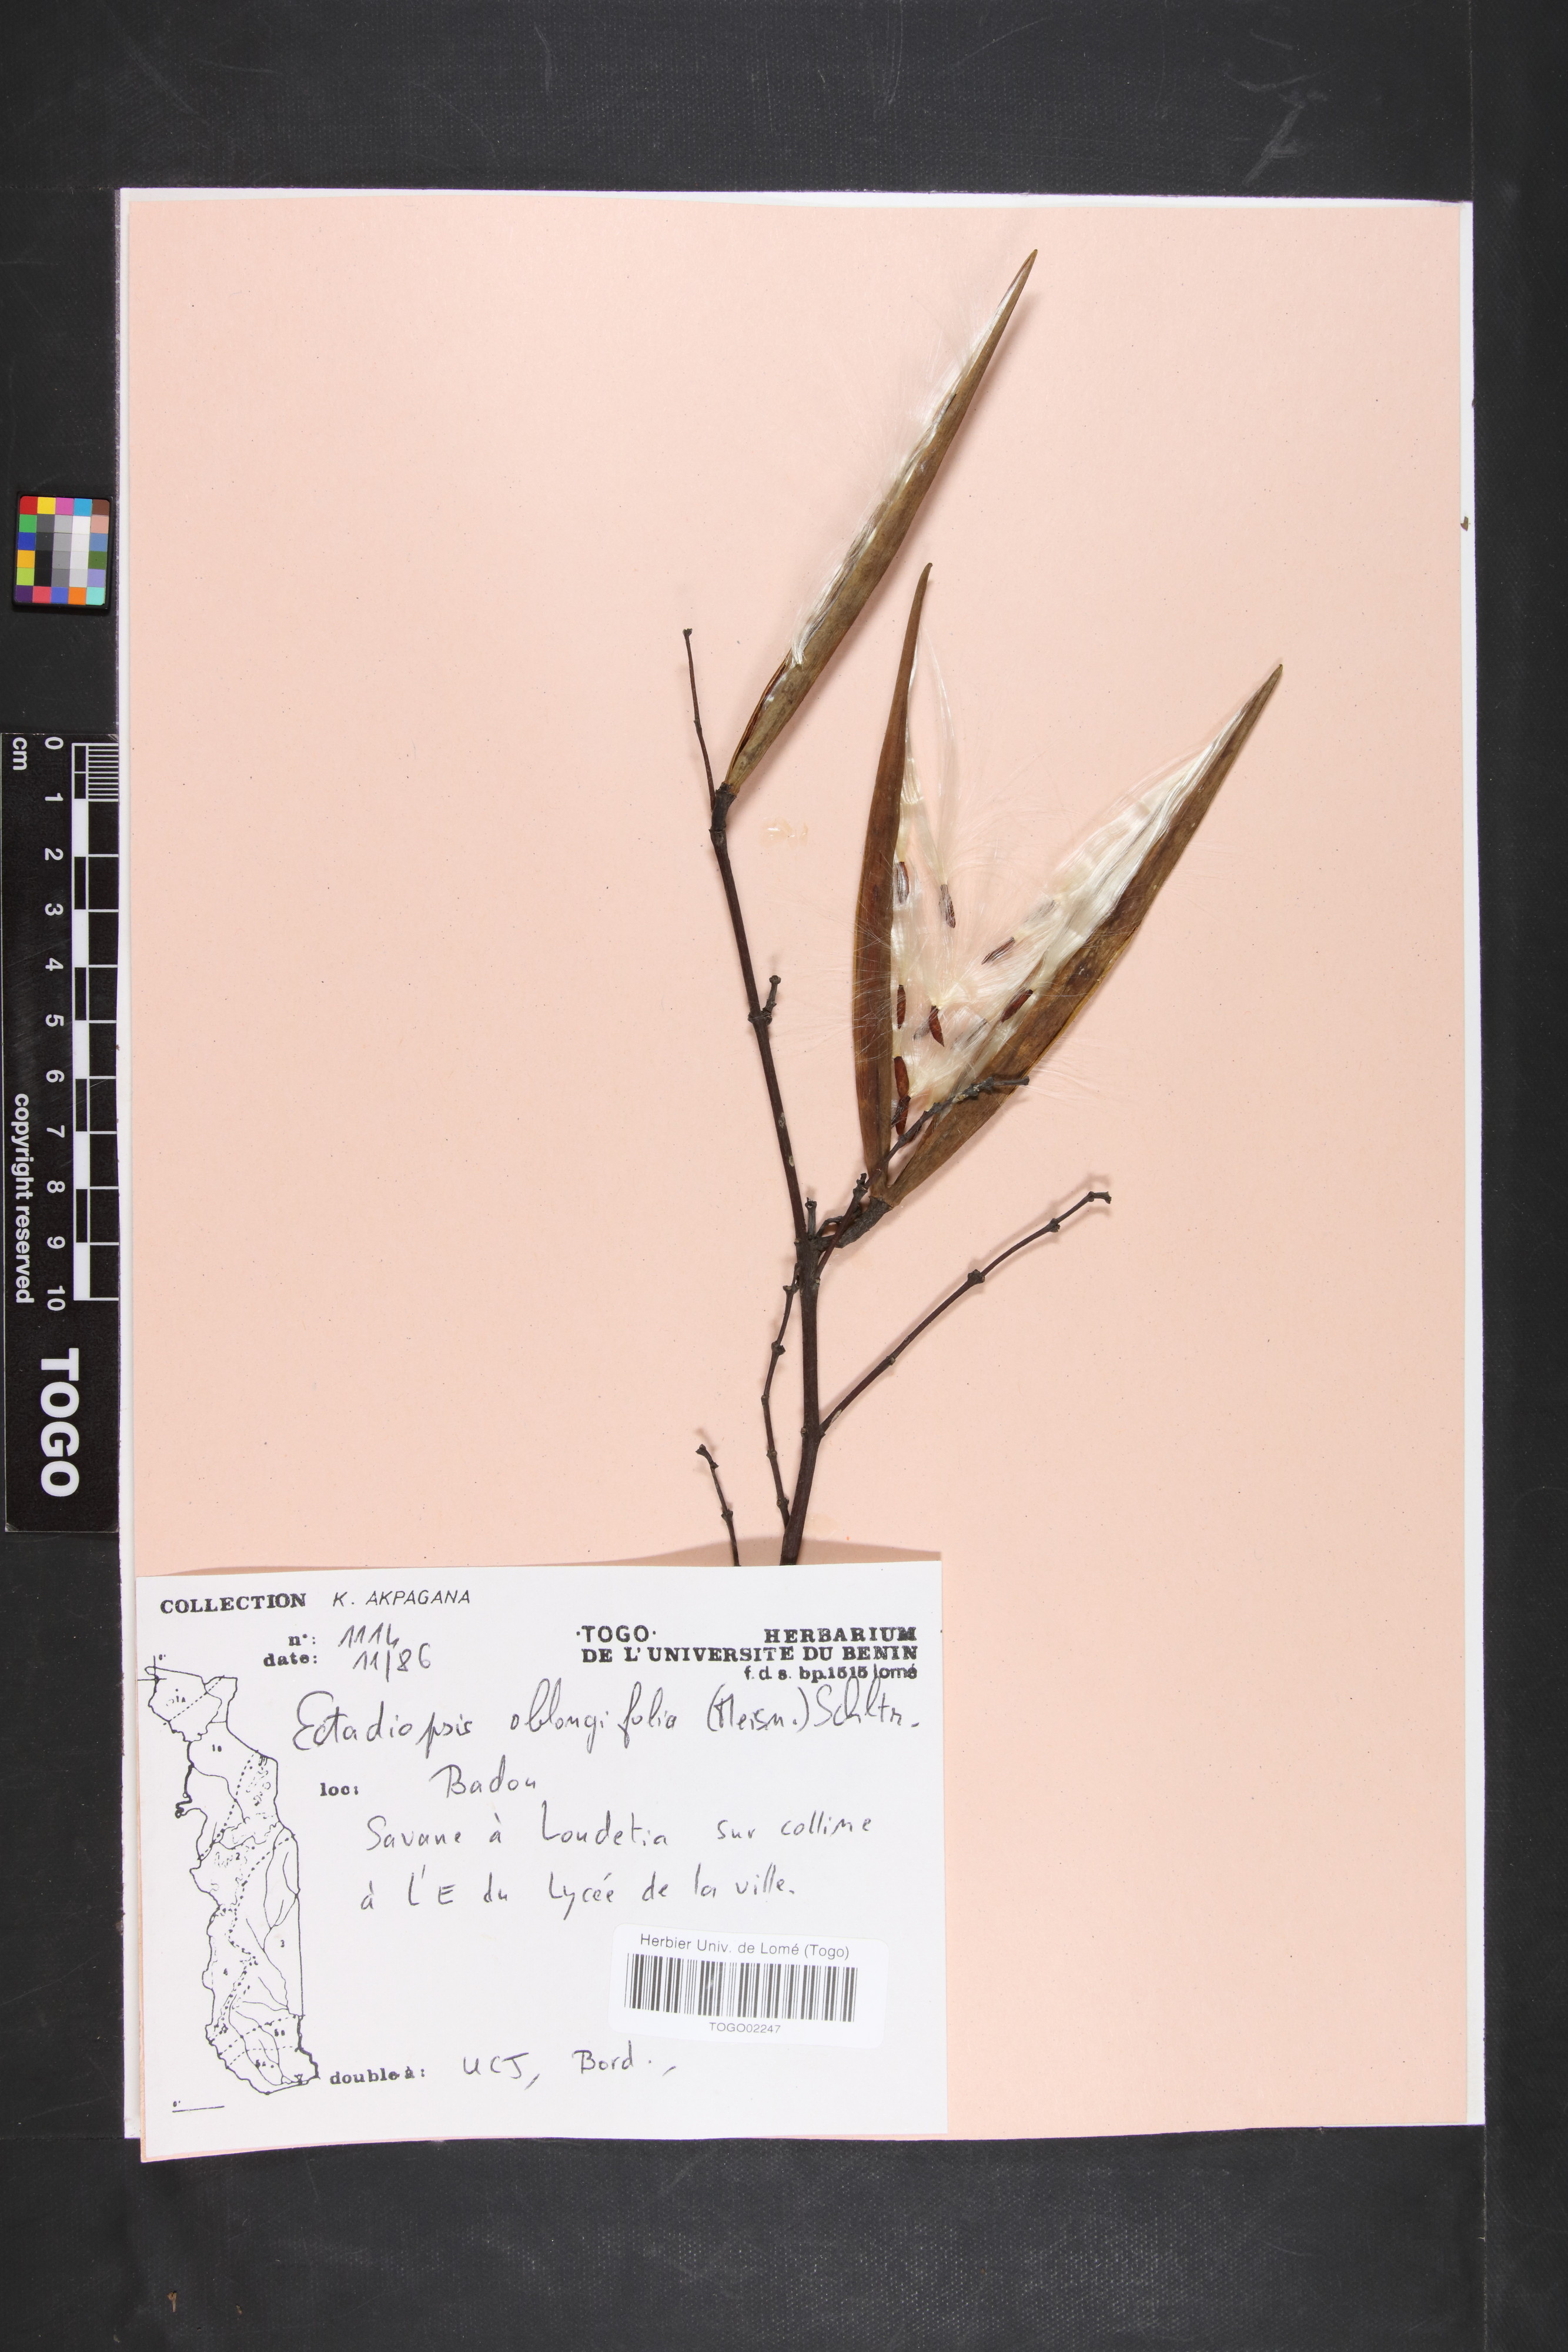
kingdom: Plantae
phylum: Tracheophyta
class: Magnoliopsida
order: Gentianales
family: Apocynaceae
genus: Cryptolepis
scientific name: Cryptolepis oblongifolia
